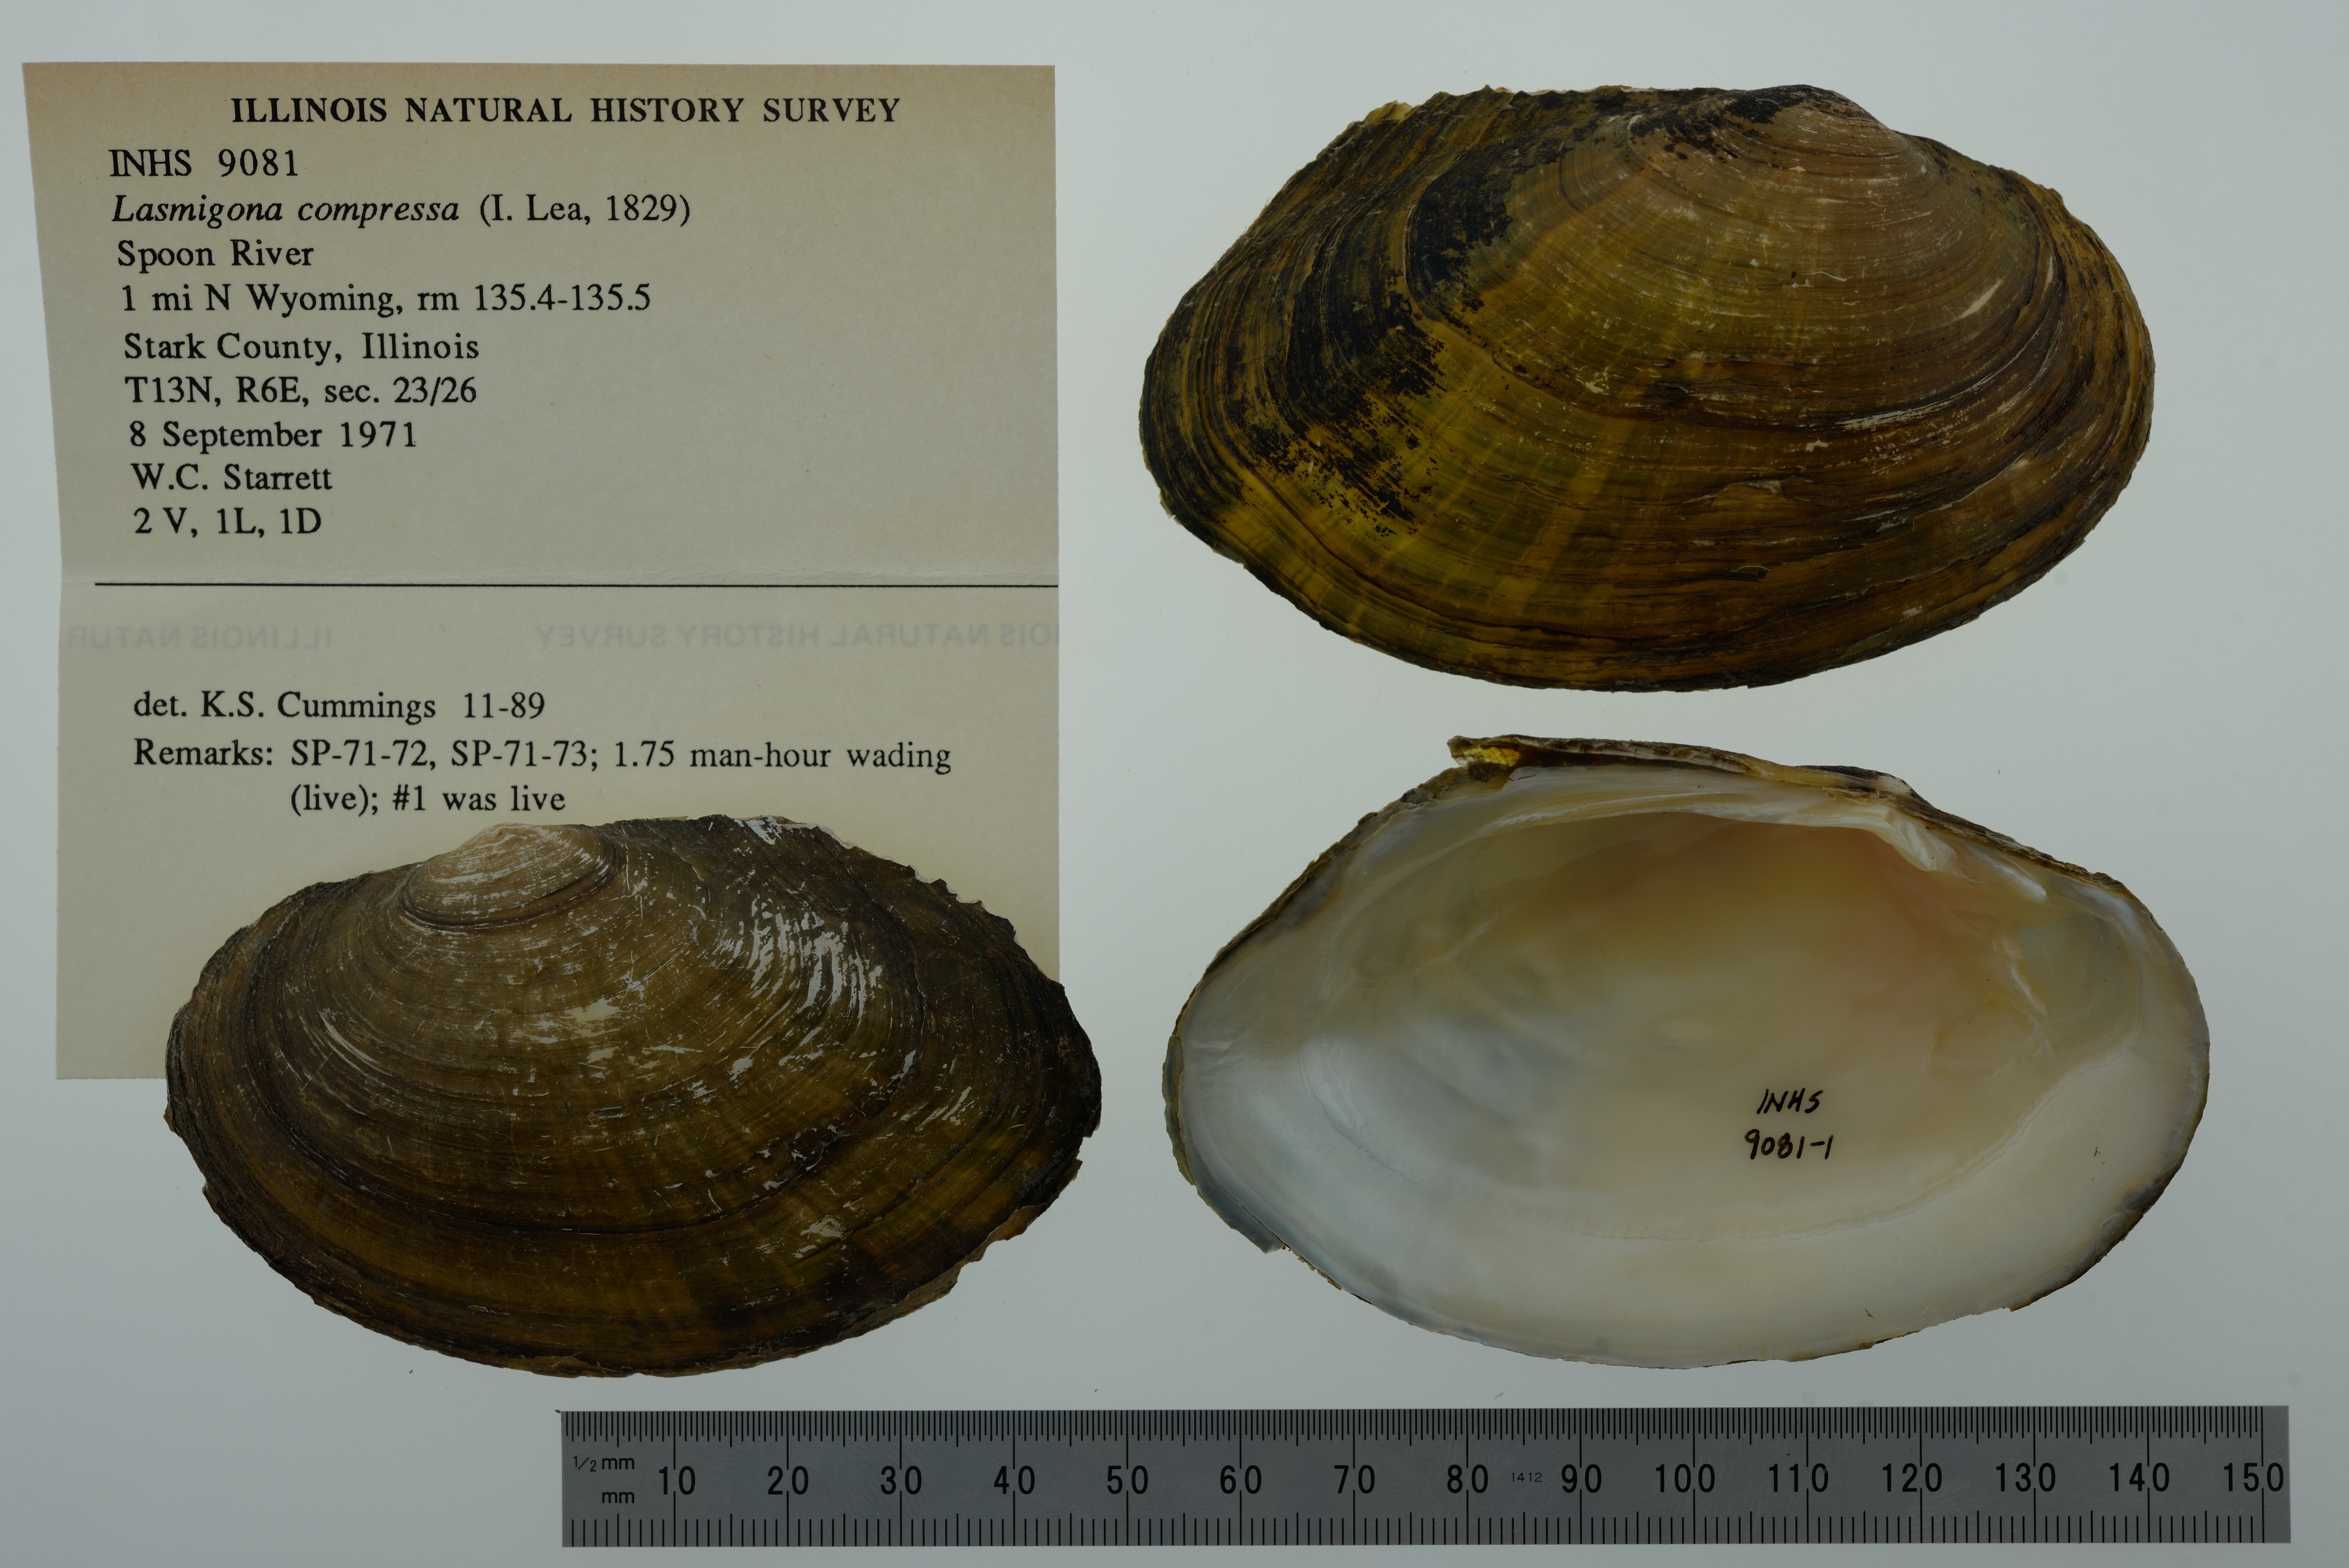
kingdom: Animalia
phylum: Mollusca
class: Bivalvia
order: Unionida
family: Unionidae
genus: Lasmigona
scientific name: Lasmigona compressa
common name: Creek heelsplitter
